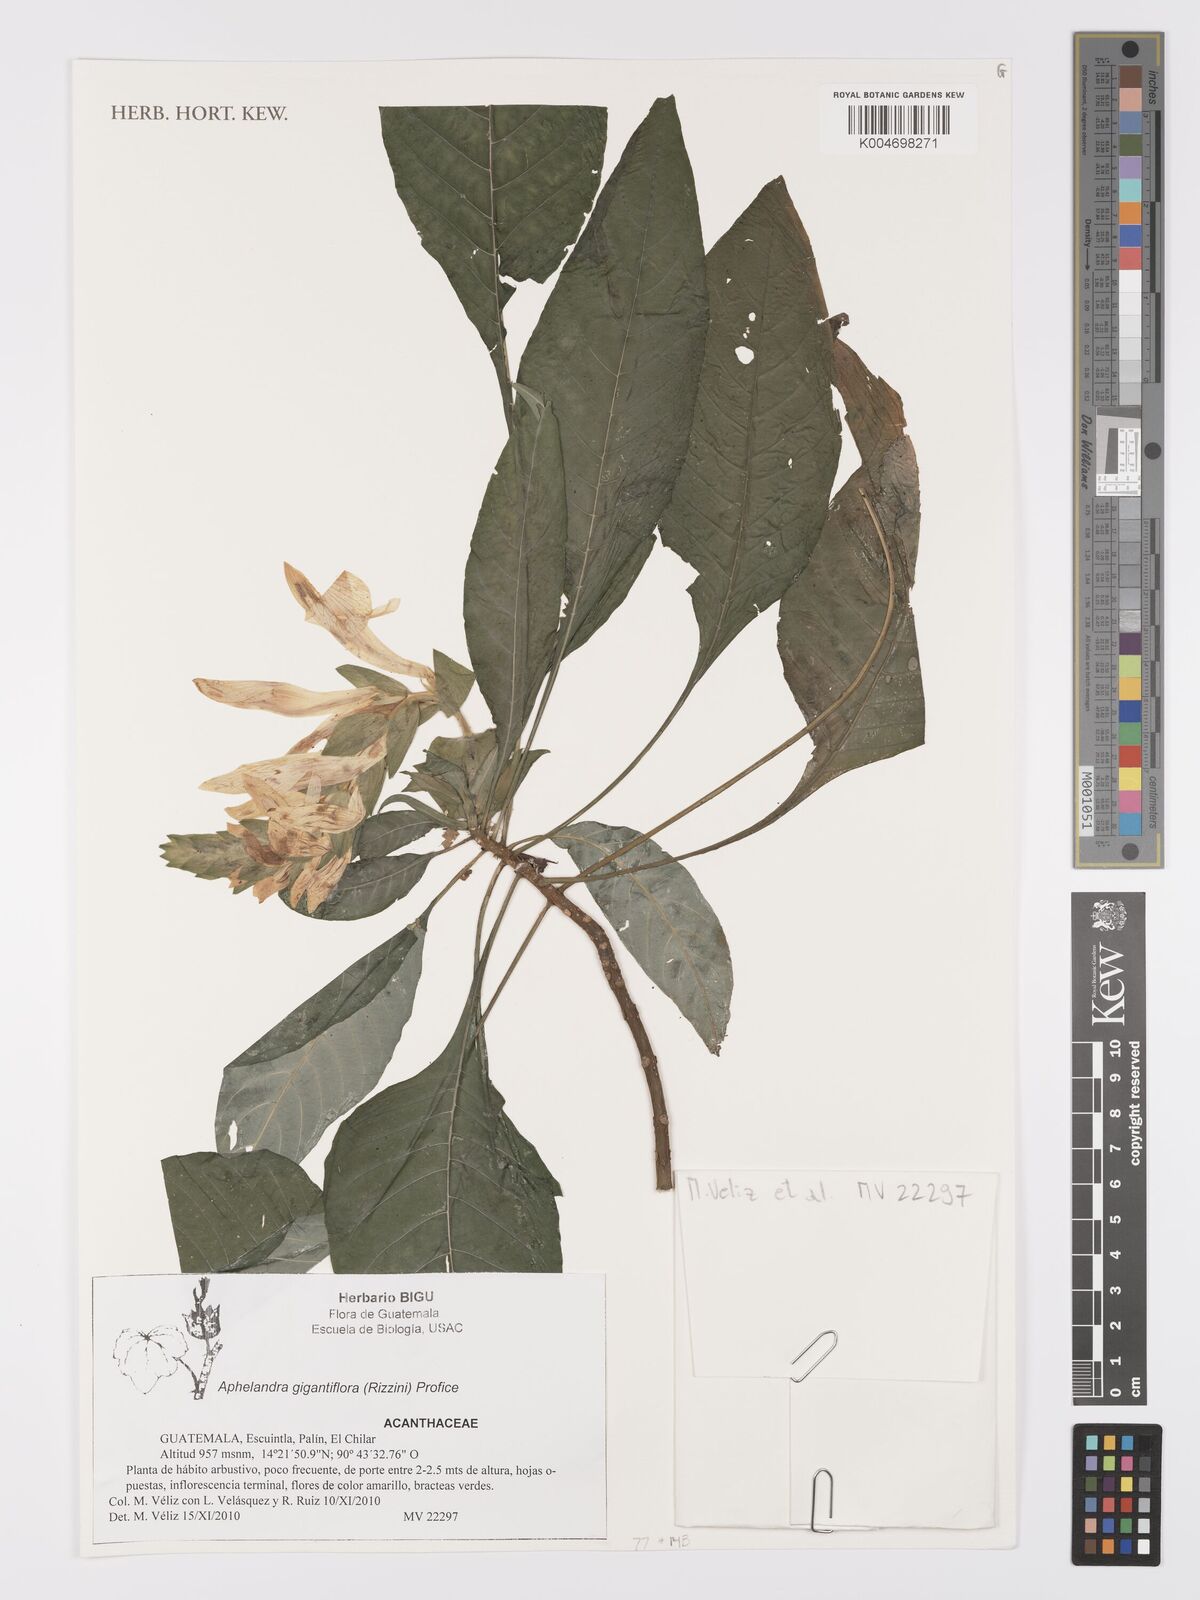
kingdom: Plantae
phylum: Tracheophyta
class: Magnoliopsida
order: Lamiales
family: Acanthaceae
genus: Aphelandra
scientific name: Aphelandra gigantiflora
